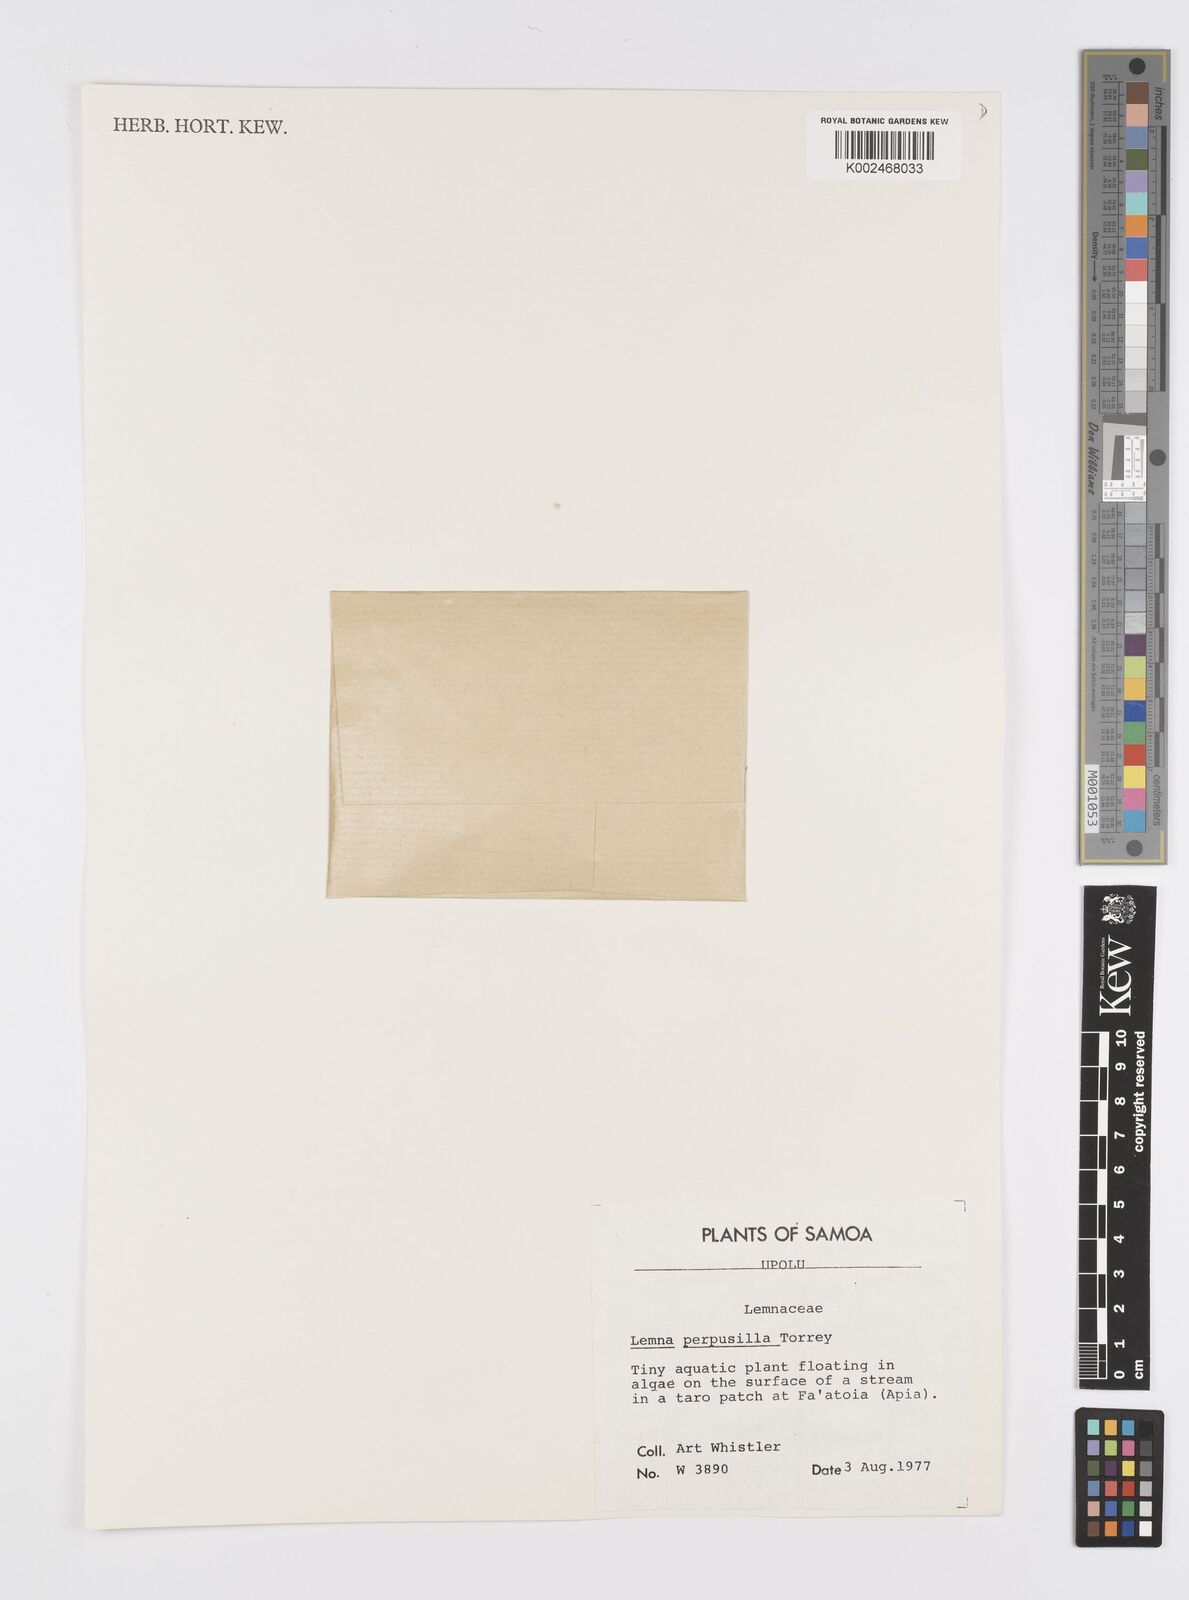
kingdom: Plantae
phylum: Tracheophyta
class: Liliopsida
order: Alismatales
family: Araceae
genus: Lemna
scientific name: Lemna perpusilla
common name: Duckweed
